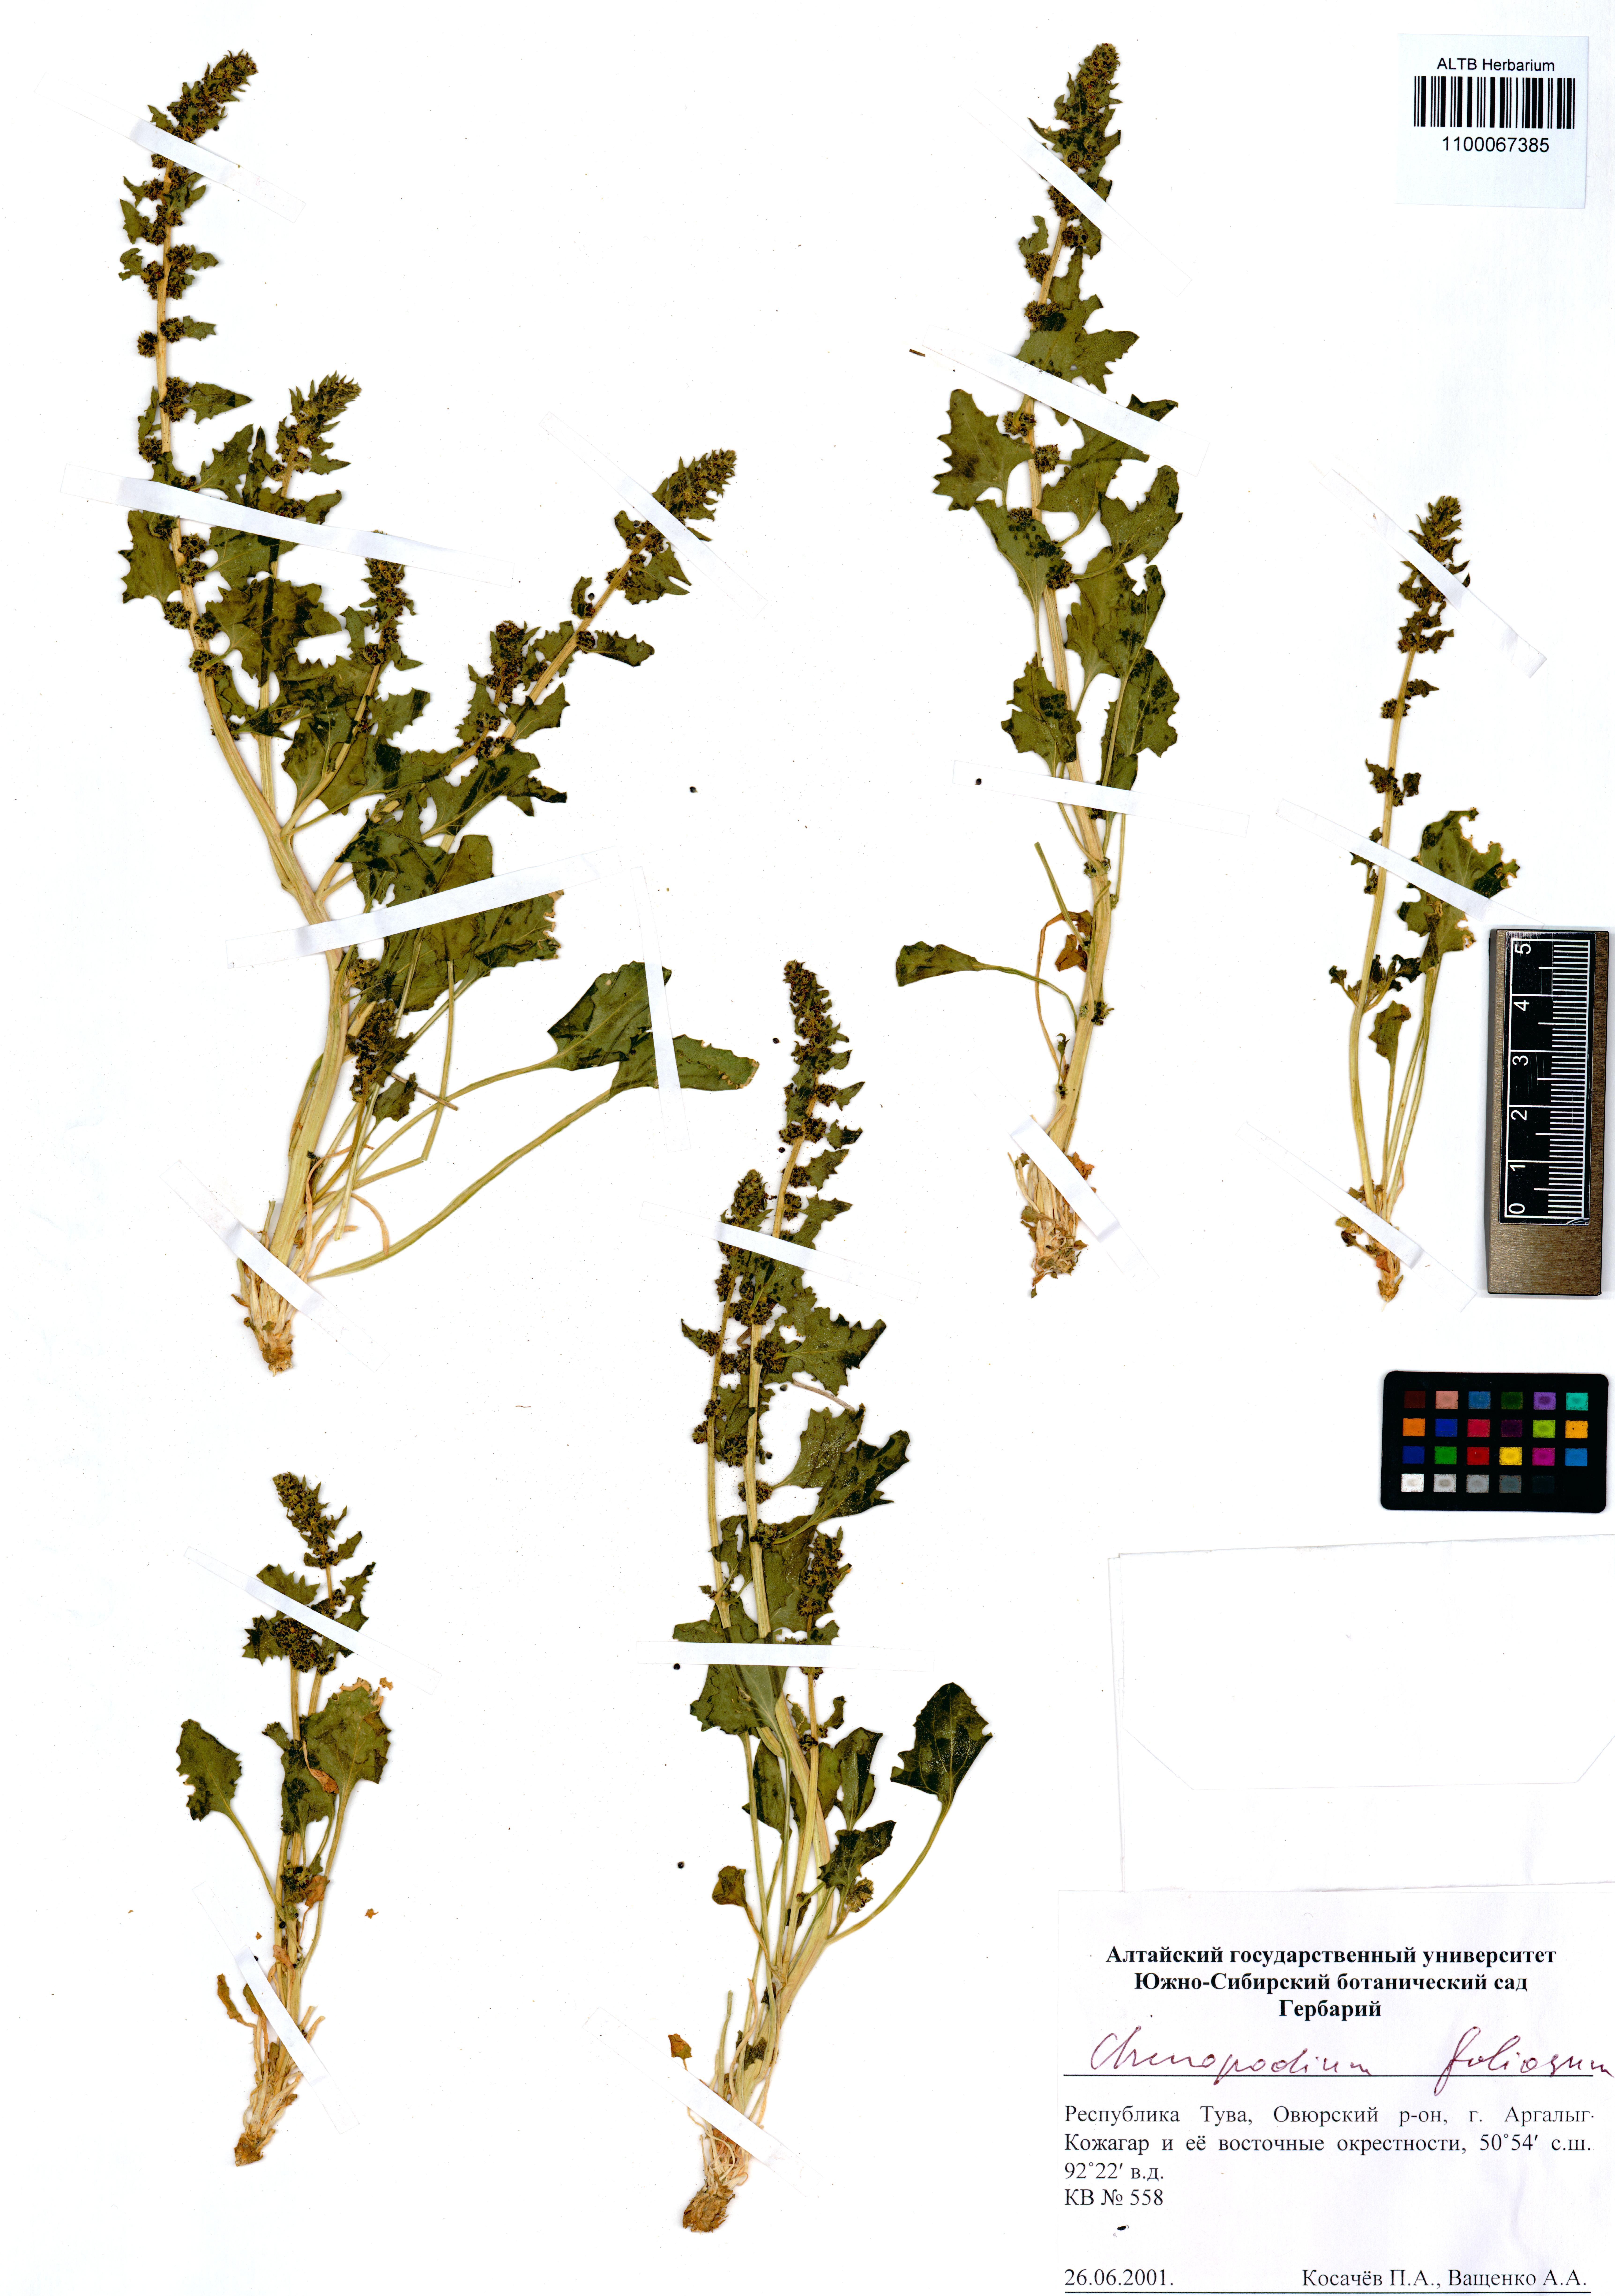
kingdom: Plantae
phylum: Tracheophyta
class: Magnoliopsida
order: Caryophyllales
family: Amaranthaceae
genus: Blitum
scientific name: Blitum virgatum
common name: Strawberry goosefoot
